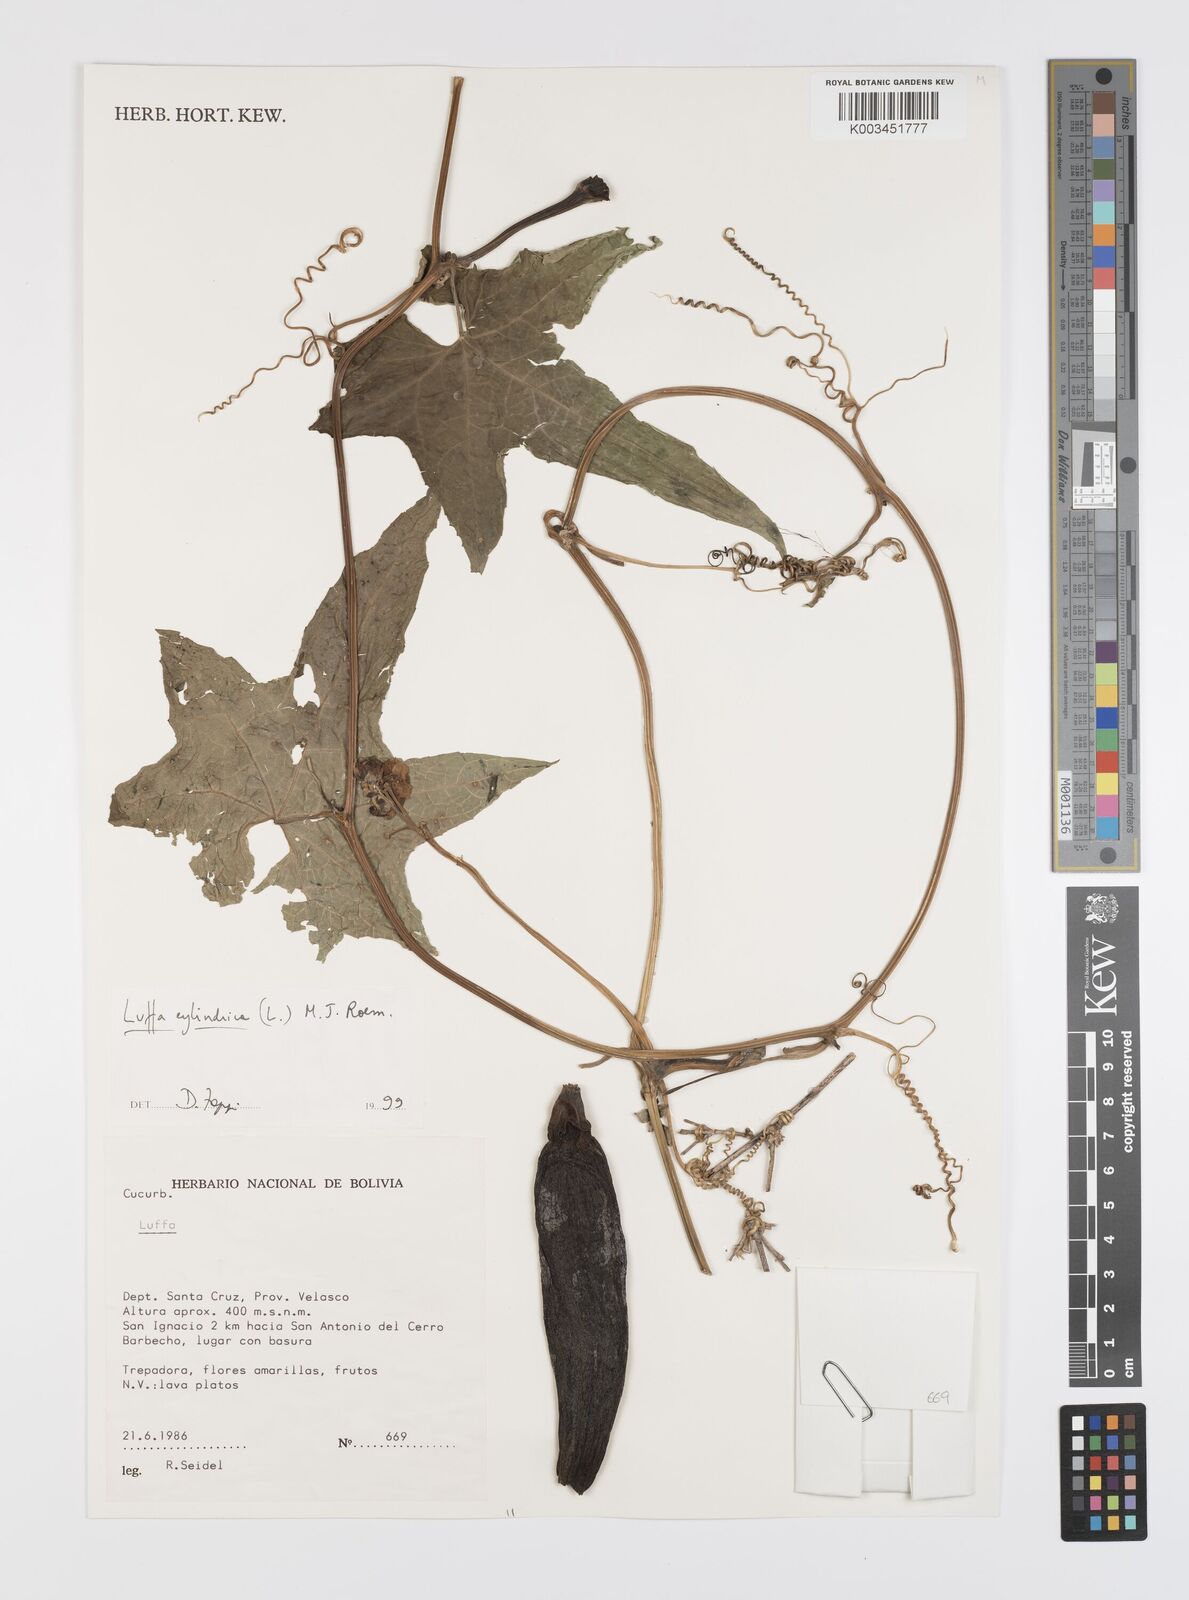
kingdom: Plantae
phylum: Tracheophyta
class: Magnoliopsida
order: Cucurbitales
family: Cucurbitaceae
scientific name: Cucurbitaceae
